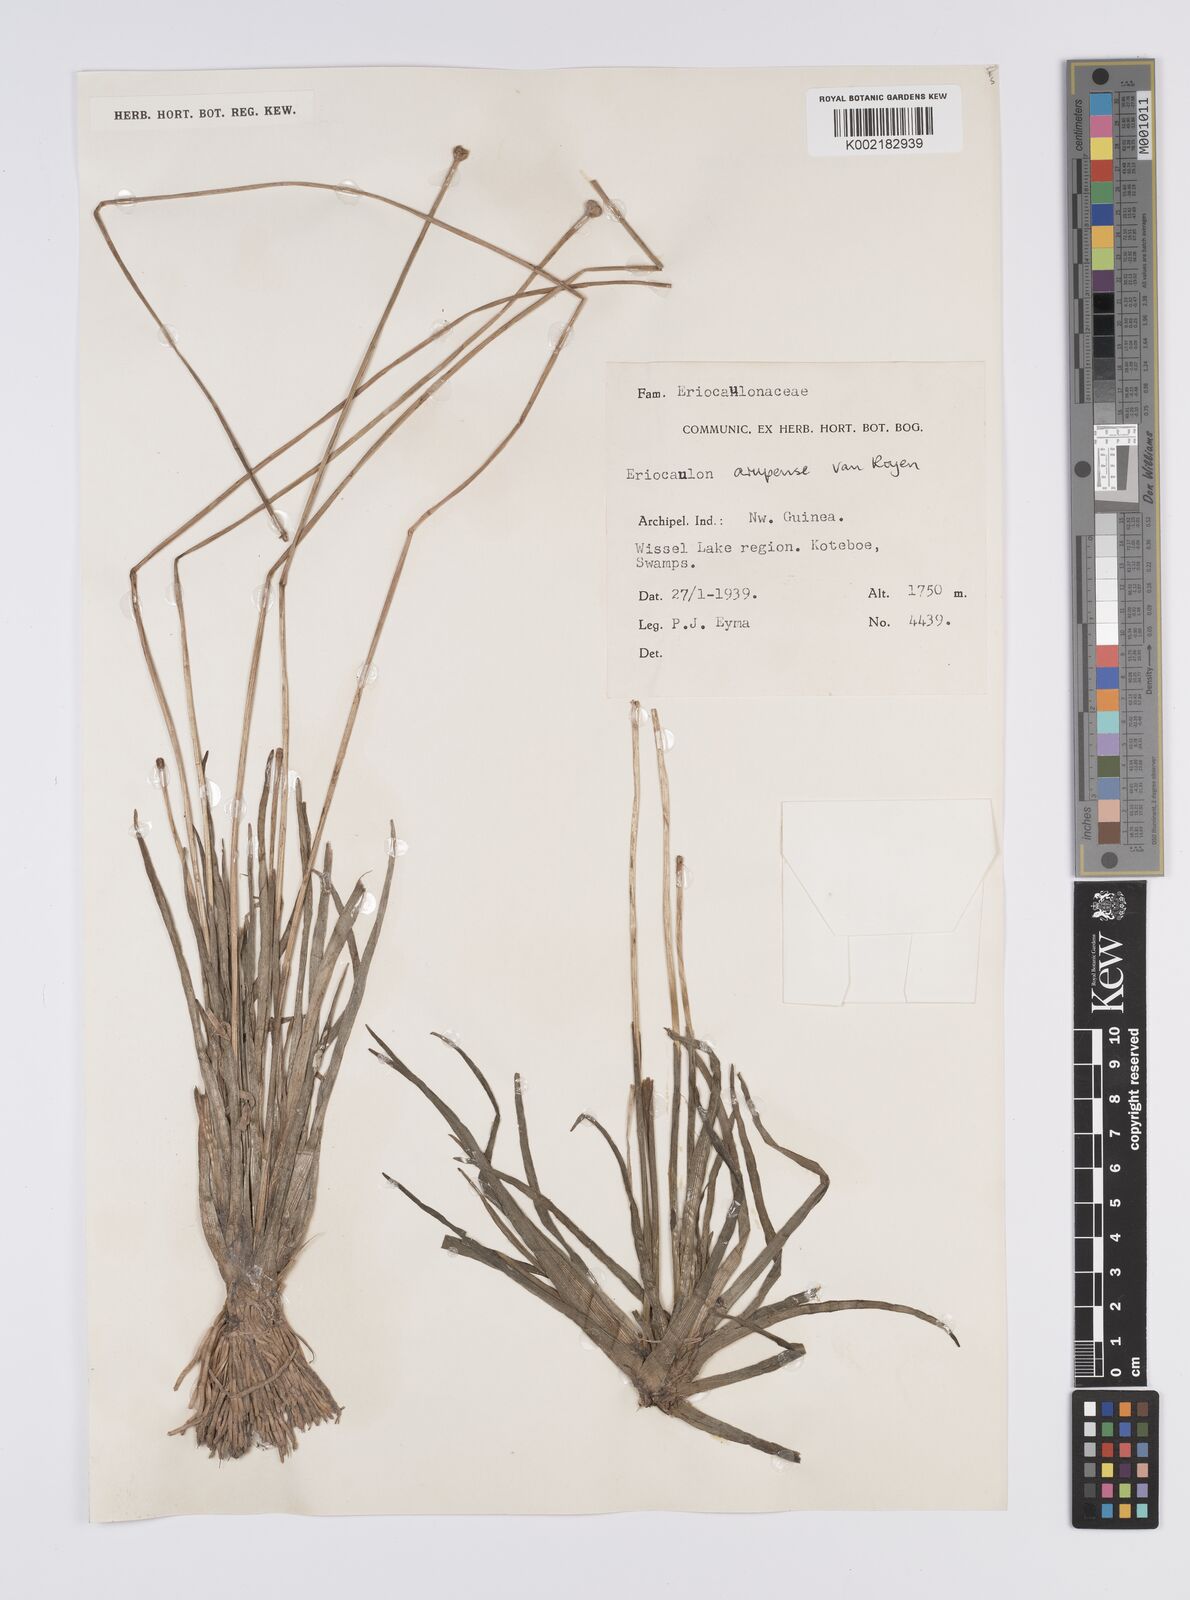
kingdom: Plantae
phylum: Tracheophyta
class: Liliopsida
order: Poales
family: Eriocaulaceae
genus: Eriocaulon
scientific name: Eriocaulon arupense
